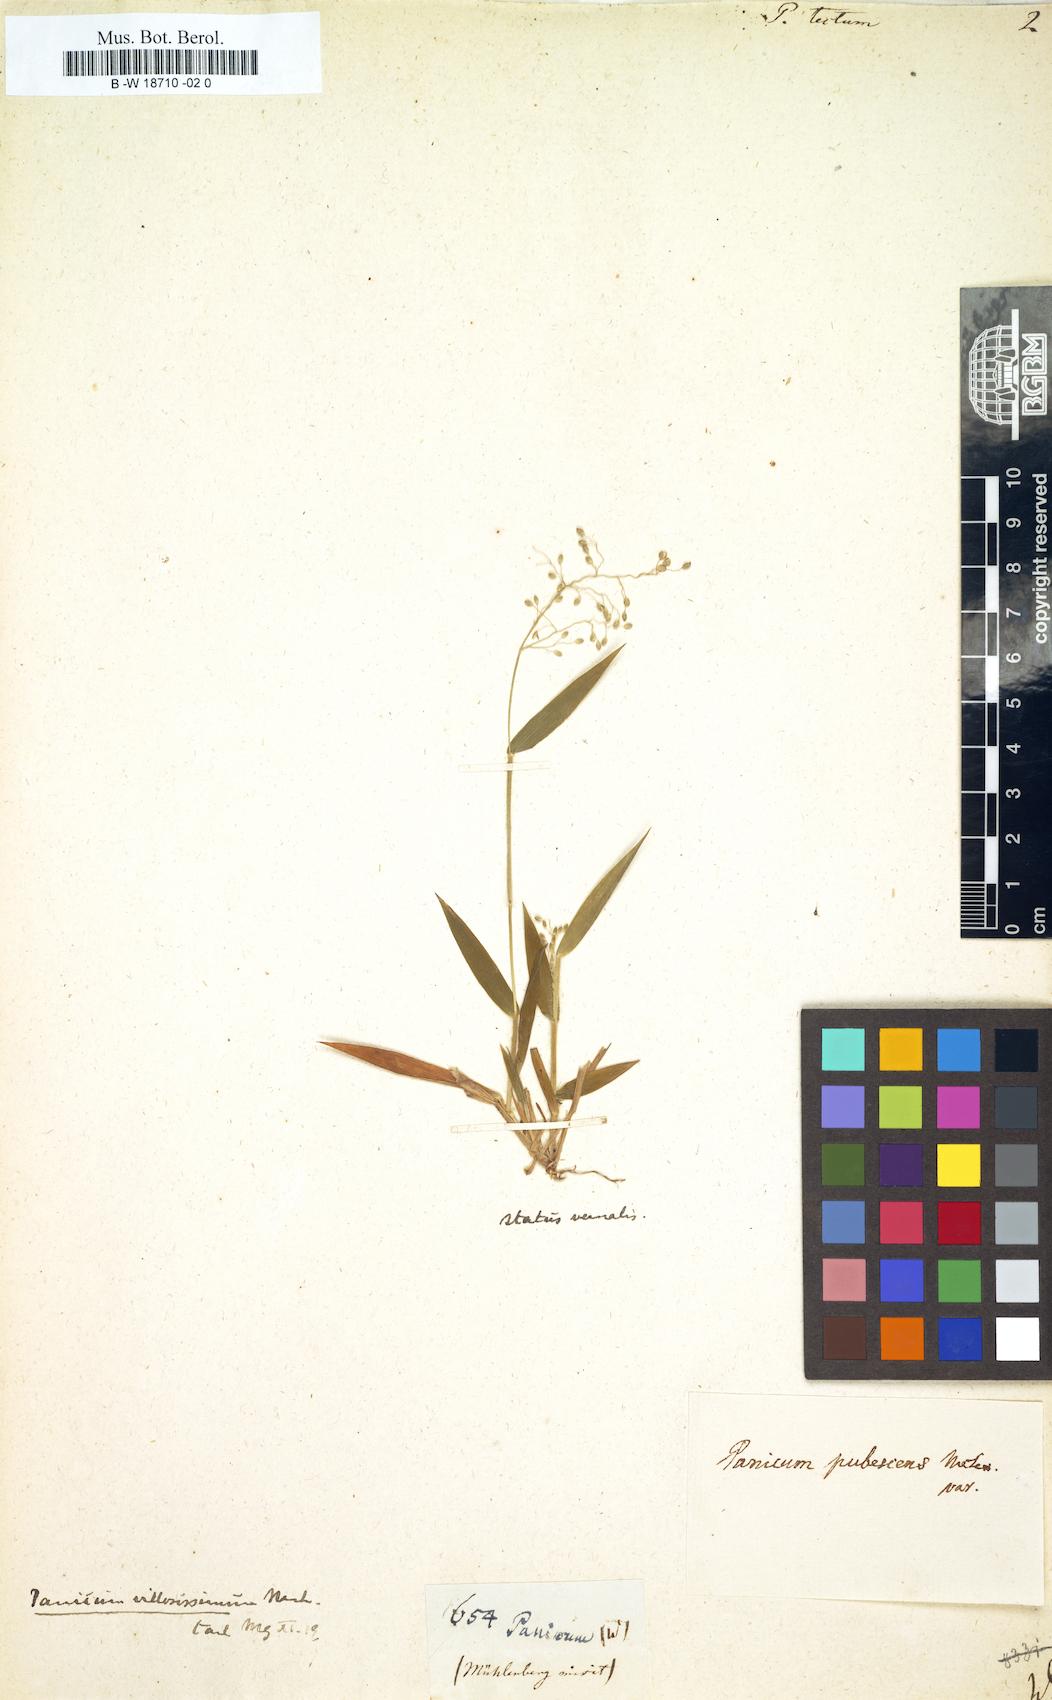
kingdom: Plantae
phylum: Tracheophyta
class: Liliopsida
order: Poales
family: Poaceae
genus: Dichanthelium
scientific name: Dichanthelium acuminatum
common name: Hairy panic grass
